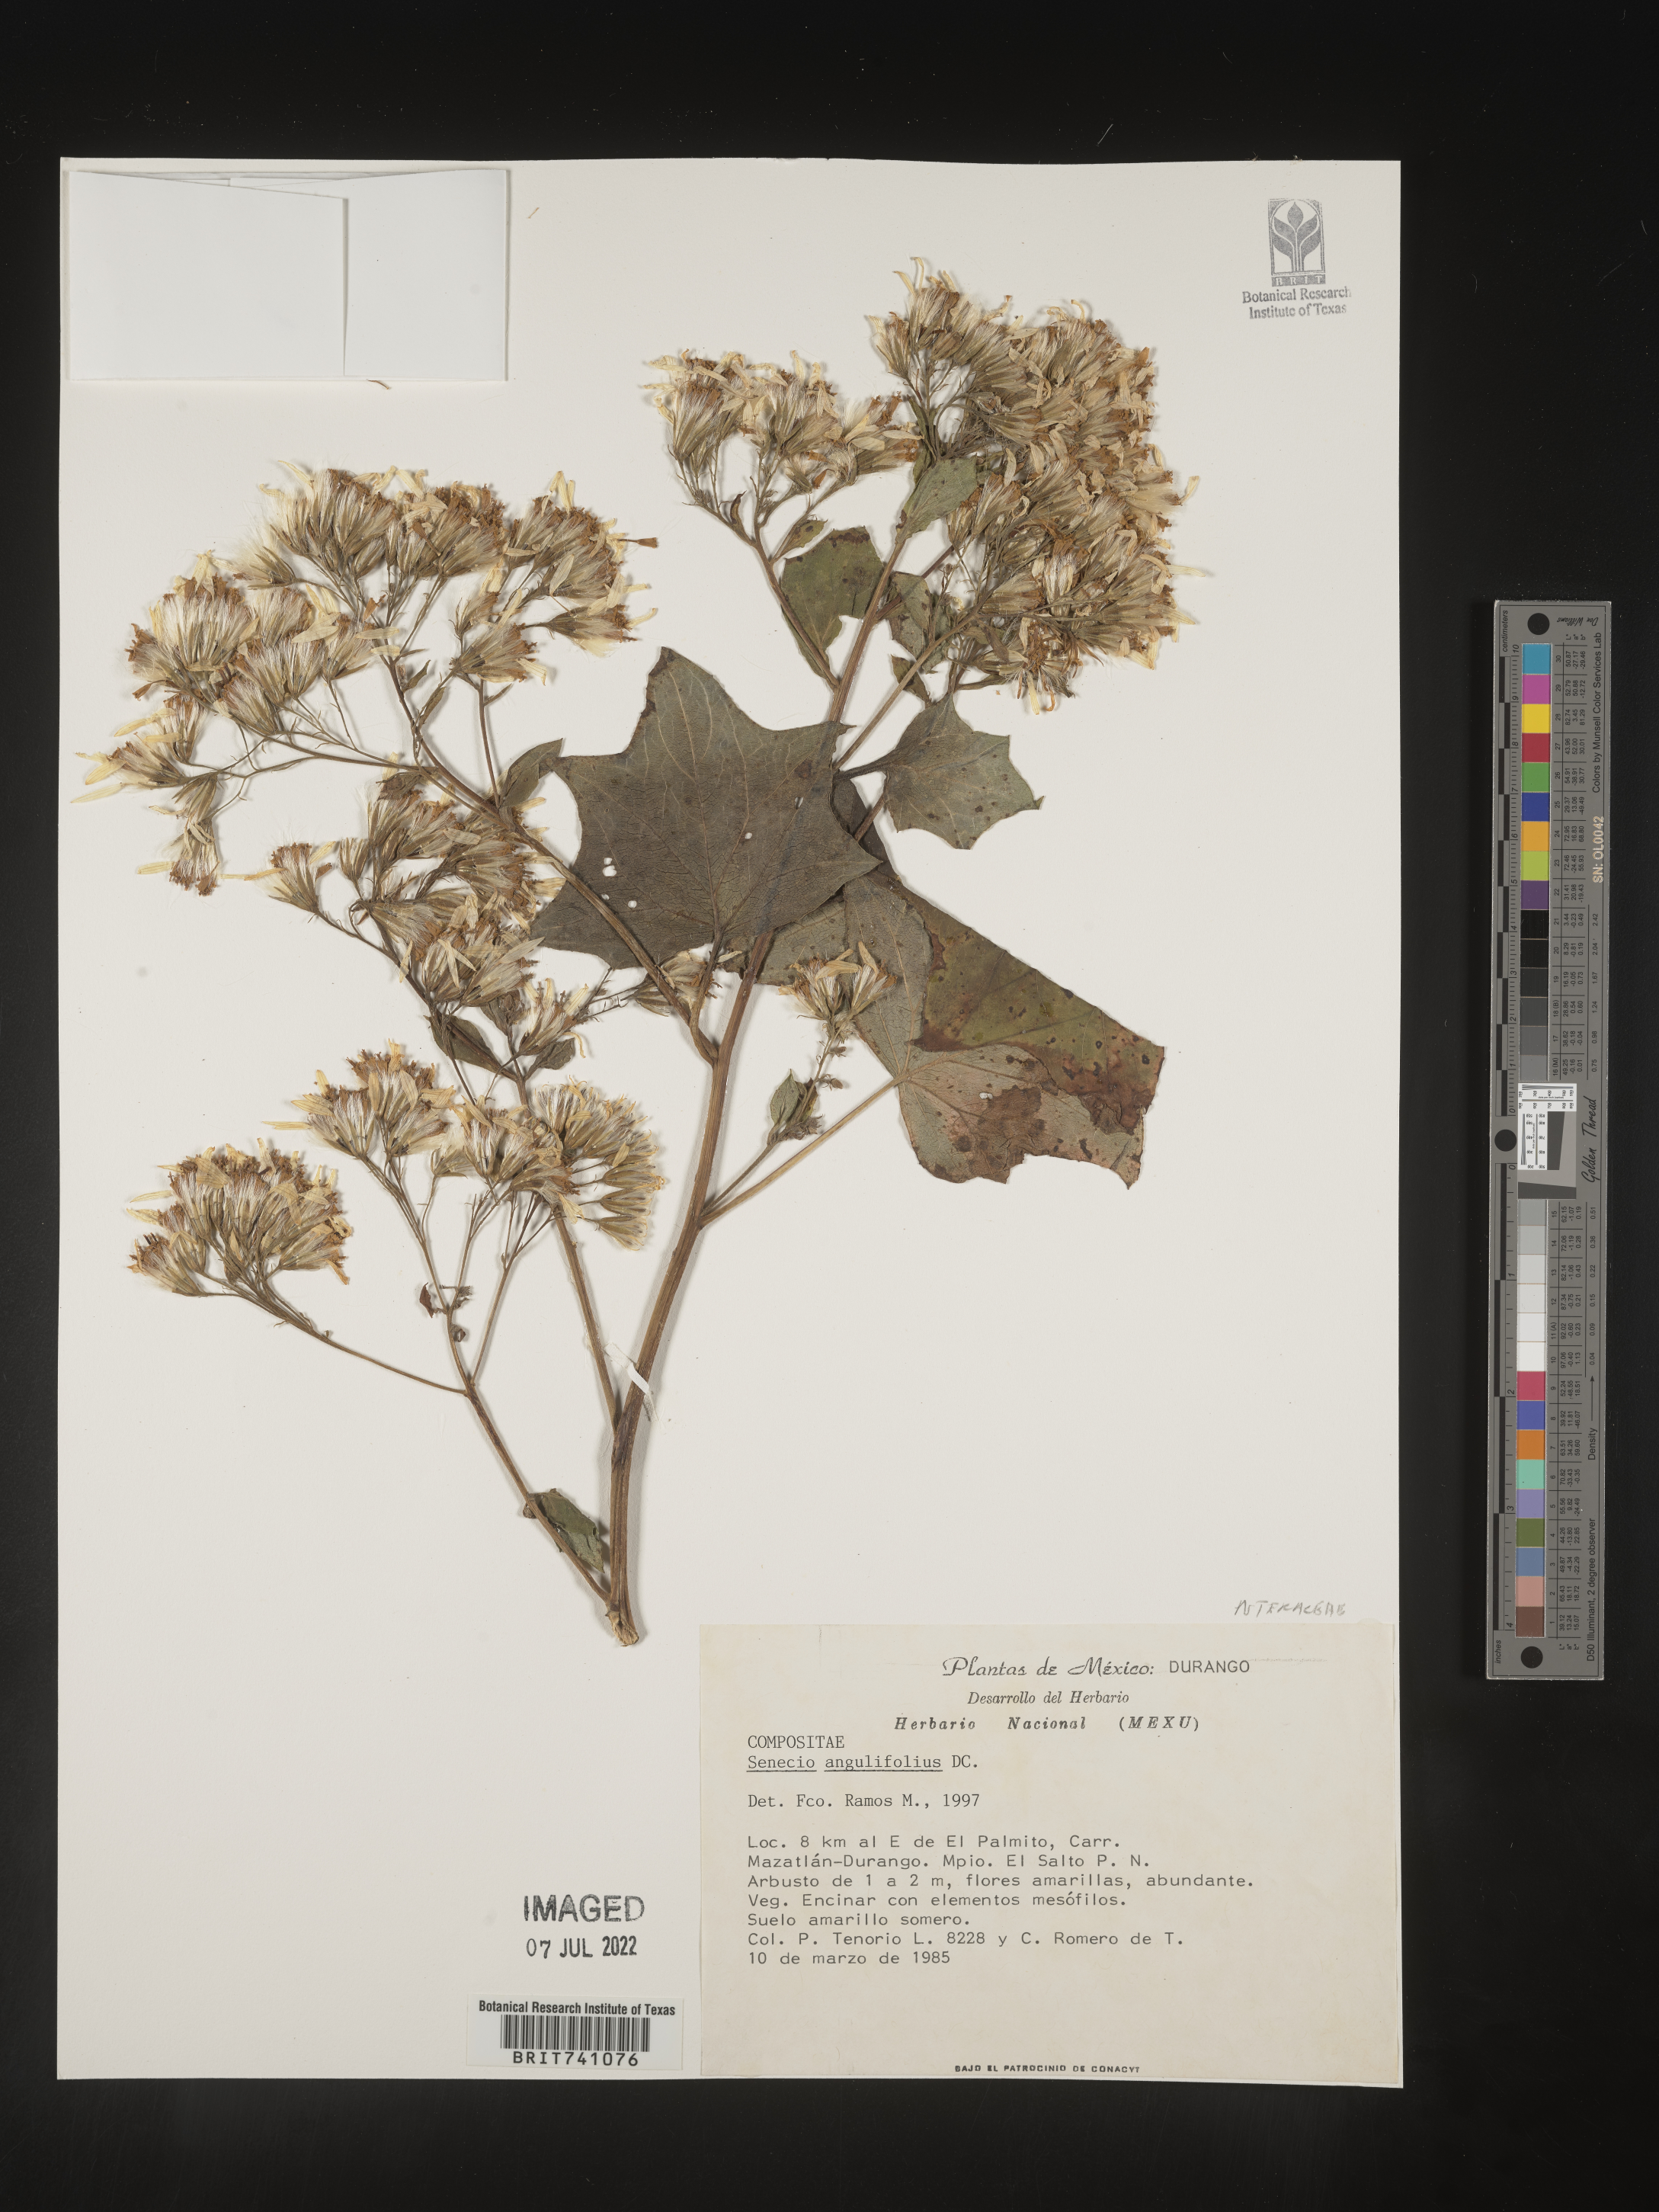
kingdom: Plantae
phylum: Tracheophyta
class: Magnoliopsida
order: Asterales
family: Asteraceae
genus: Senecio
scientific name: Senecio
